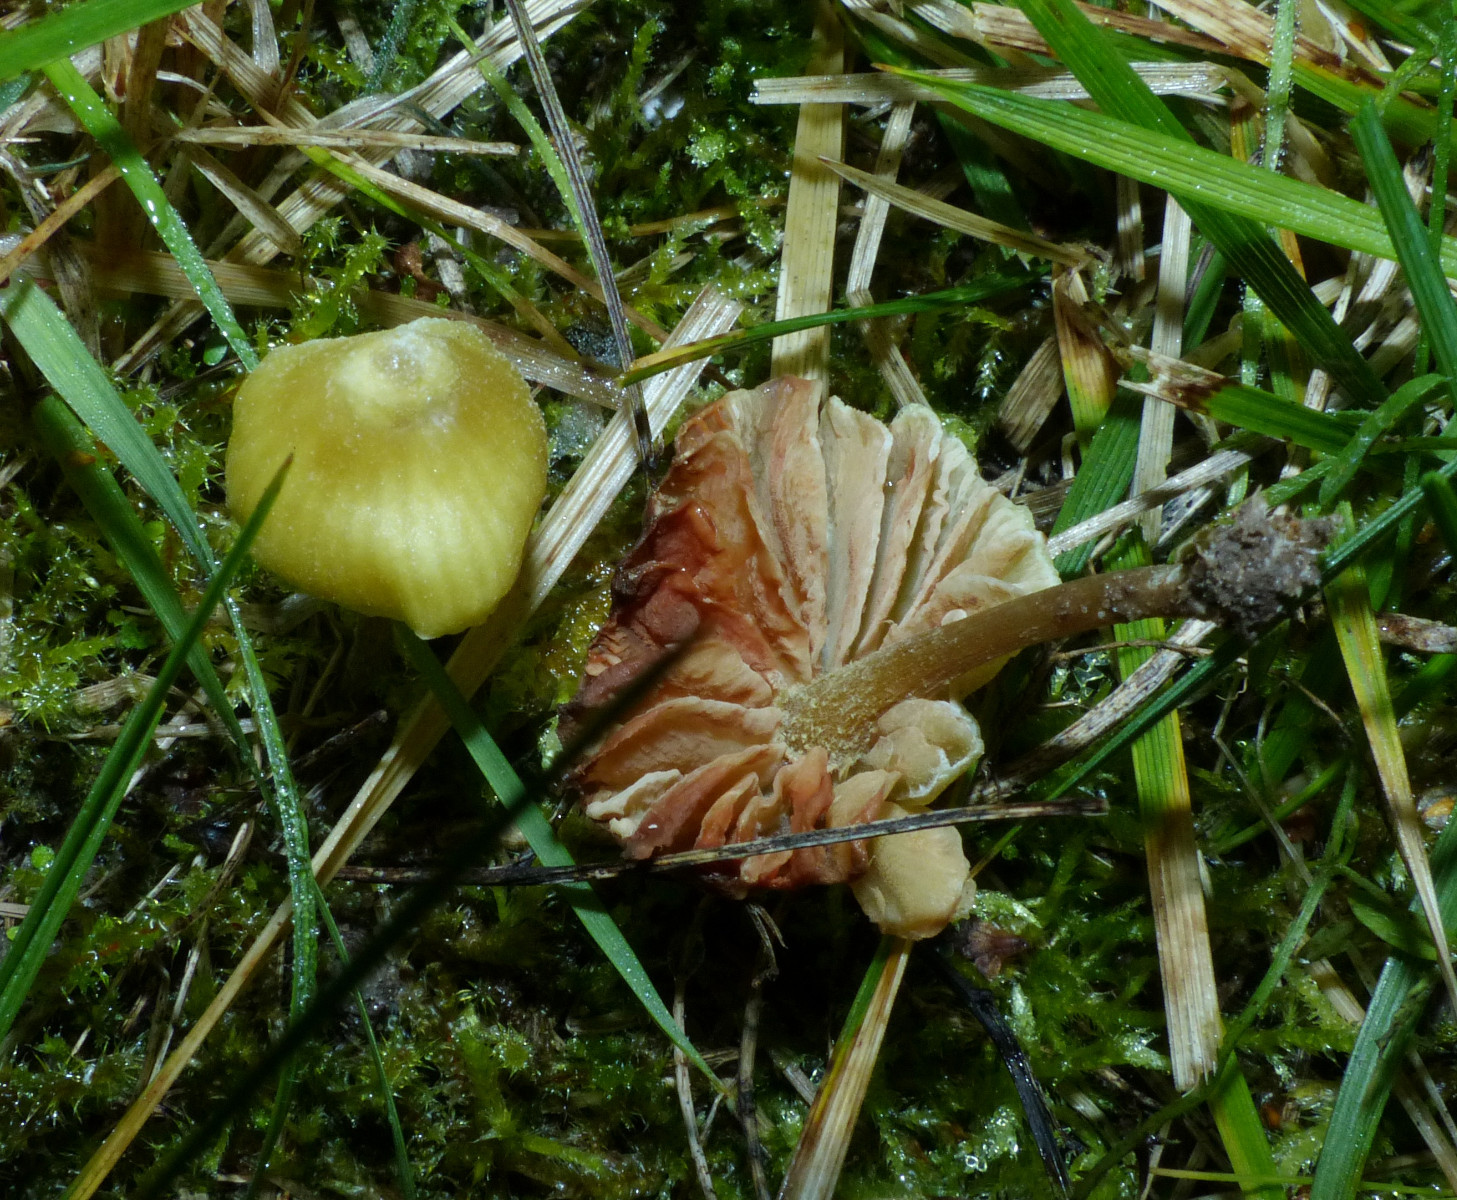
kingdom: Fungi
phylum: Basidiomycota
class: Agaricomycetes
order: Agaricales
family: Entolomataceae
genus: Entoloma
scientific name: Entoloma pleopodium
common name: duftende rødblad
